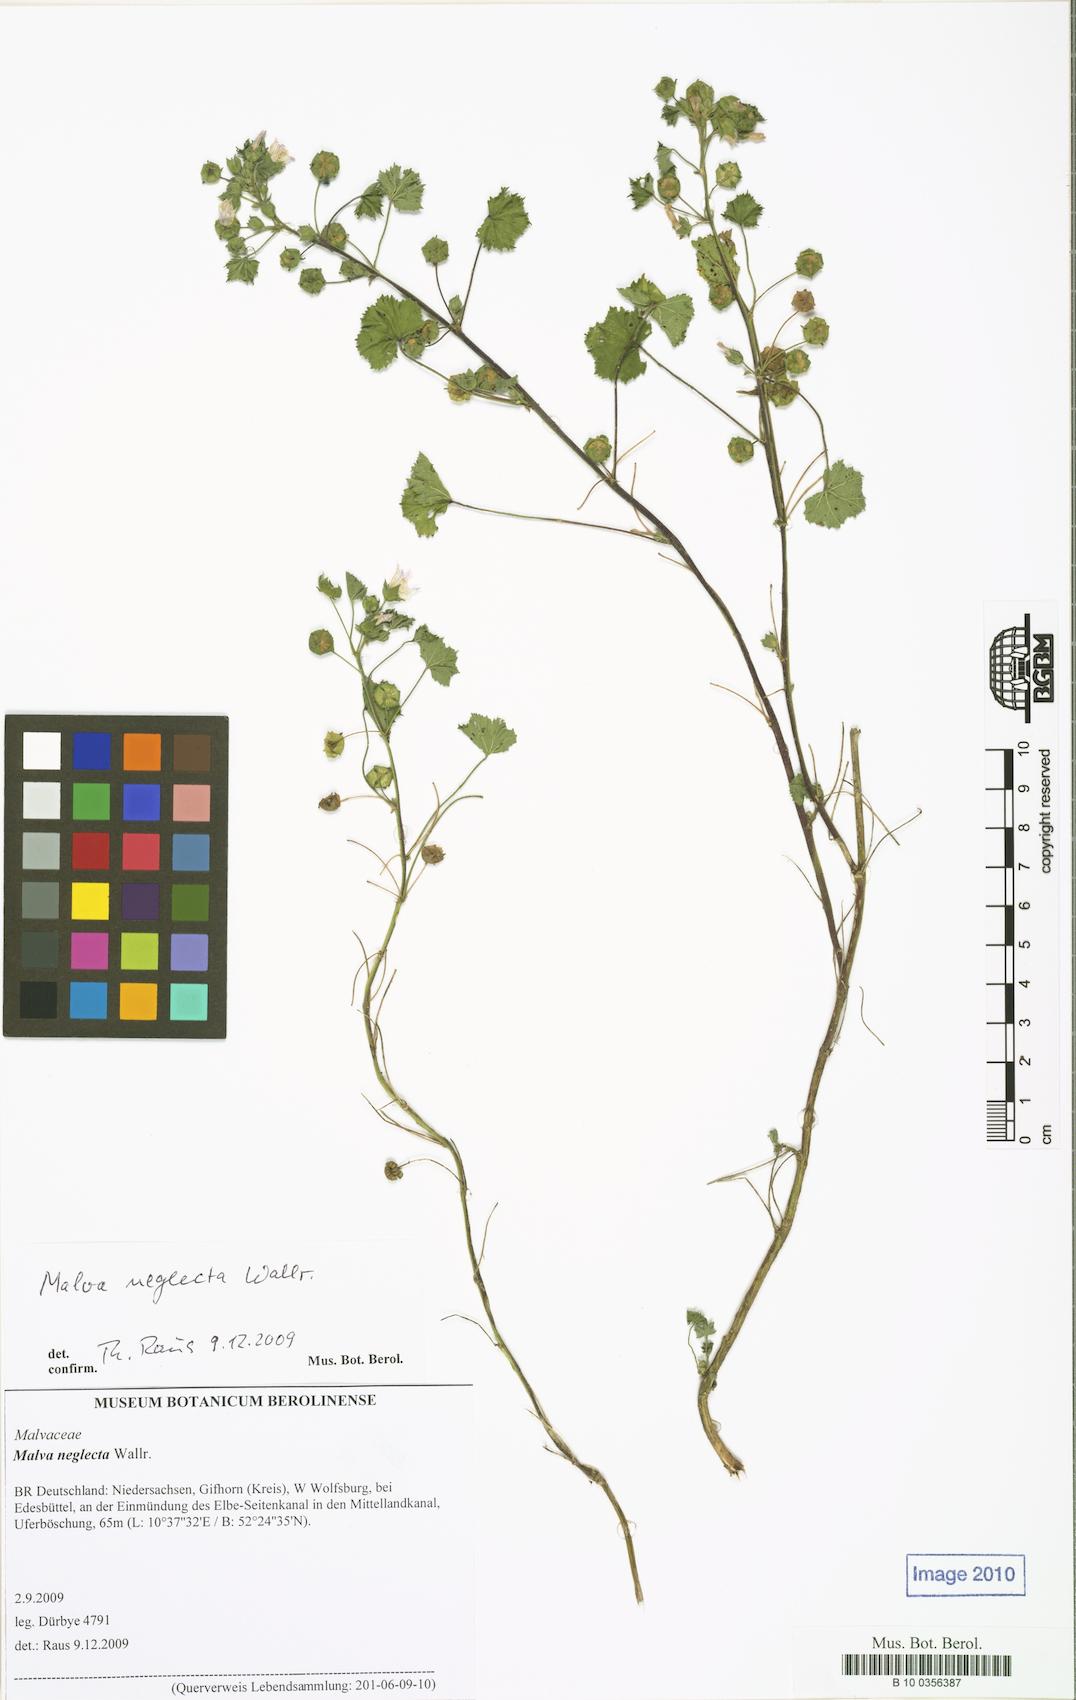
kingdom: Plantae
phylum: Tracheophyta
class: Magnoliopsida
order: Malvales
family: Malvaceae
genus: Malva
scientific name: Malva neglecta
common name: Common mallow
